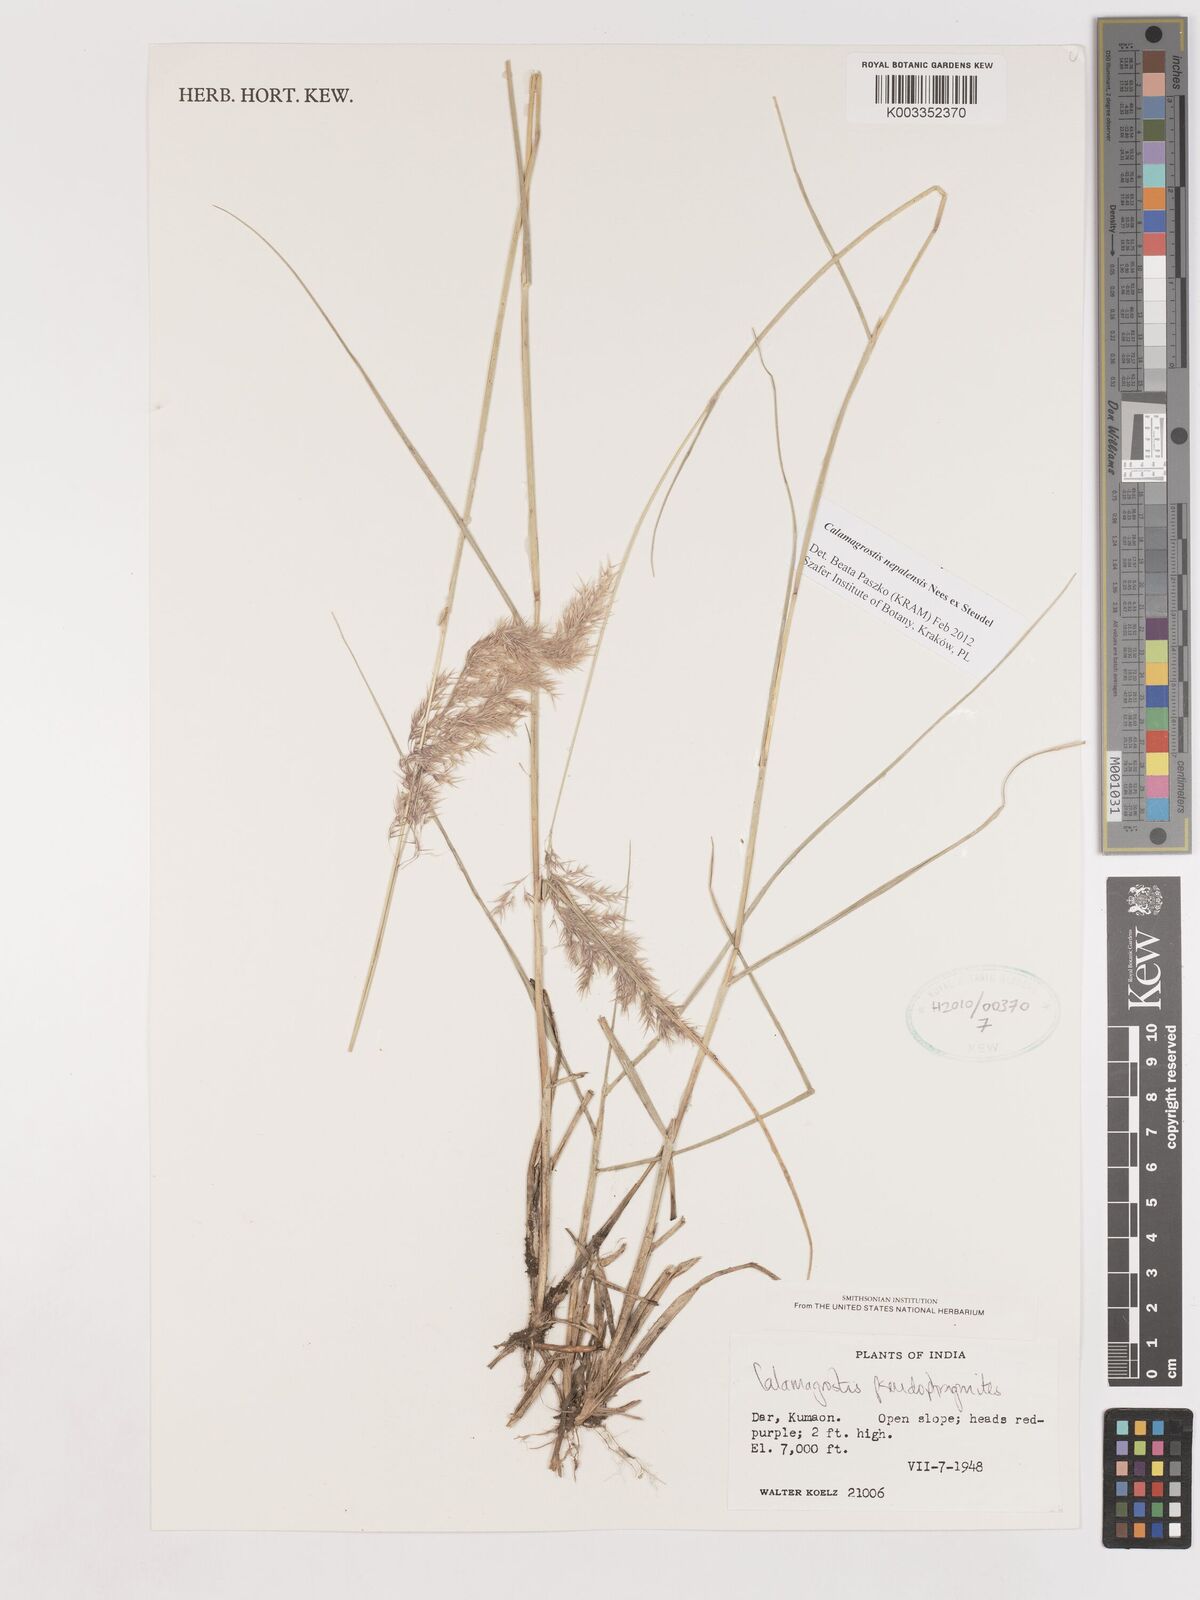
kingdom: Plantae
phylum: Tracheophyta
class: Liliopsida
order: Poales
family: Poaceae
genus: Calamagrostis
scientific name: Calamagrostis pseudophragmites
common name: Coastal small-reed
